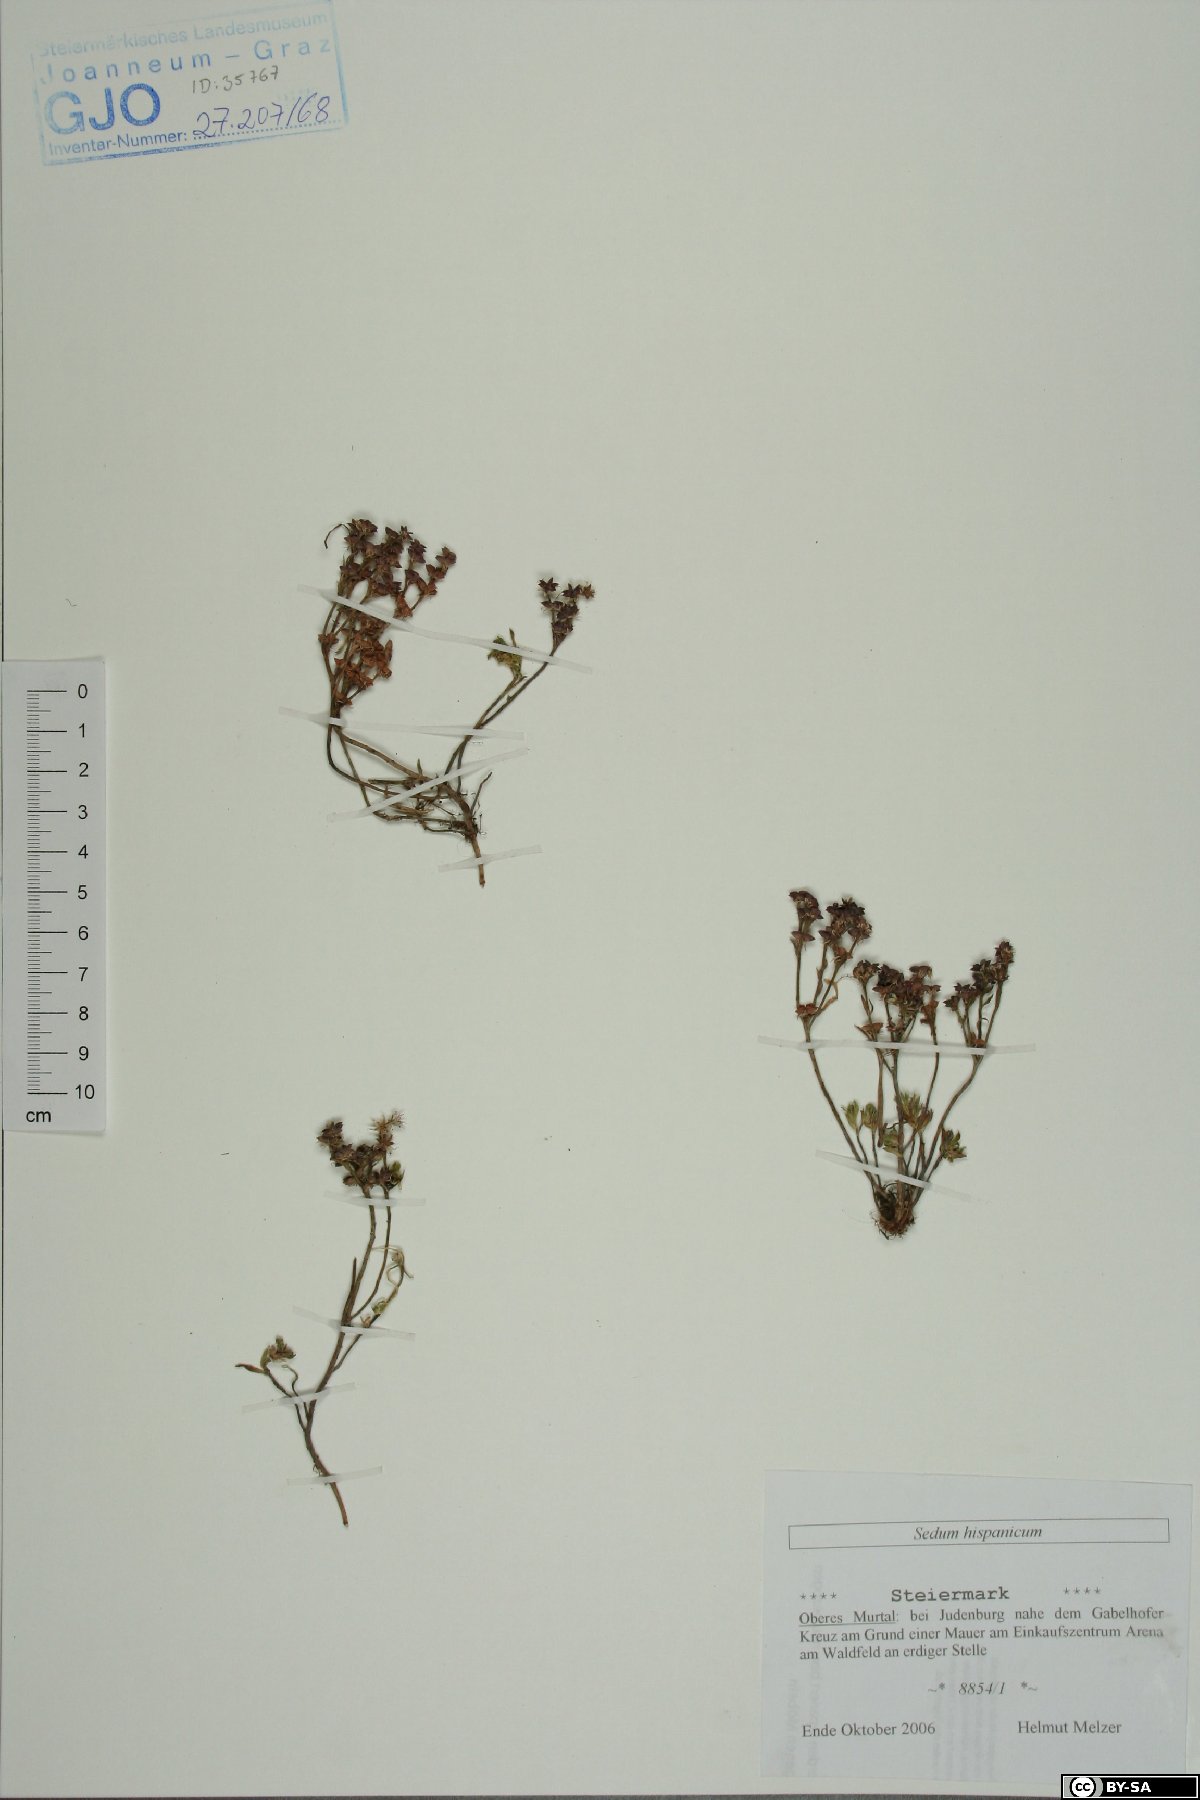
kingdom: Plantae
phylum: Tracheophyta
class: Magnoliopsida
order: Saxifragales
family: Crassulaceae
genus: Sedum
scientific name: Sedum hispanicum
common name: Spanish stonecrop
